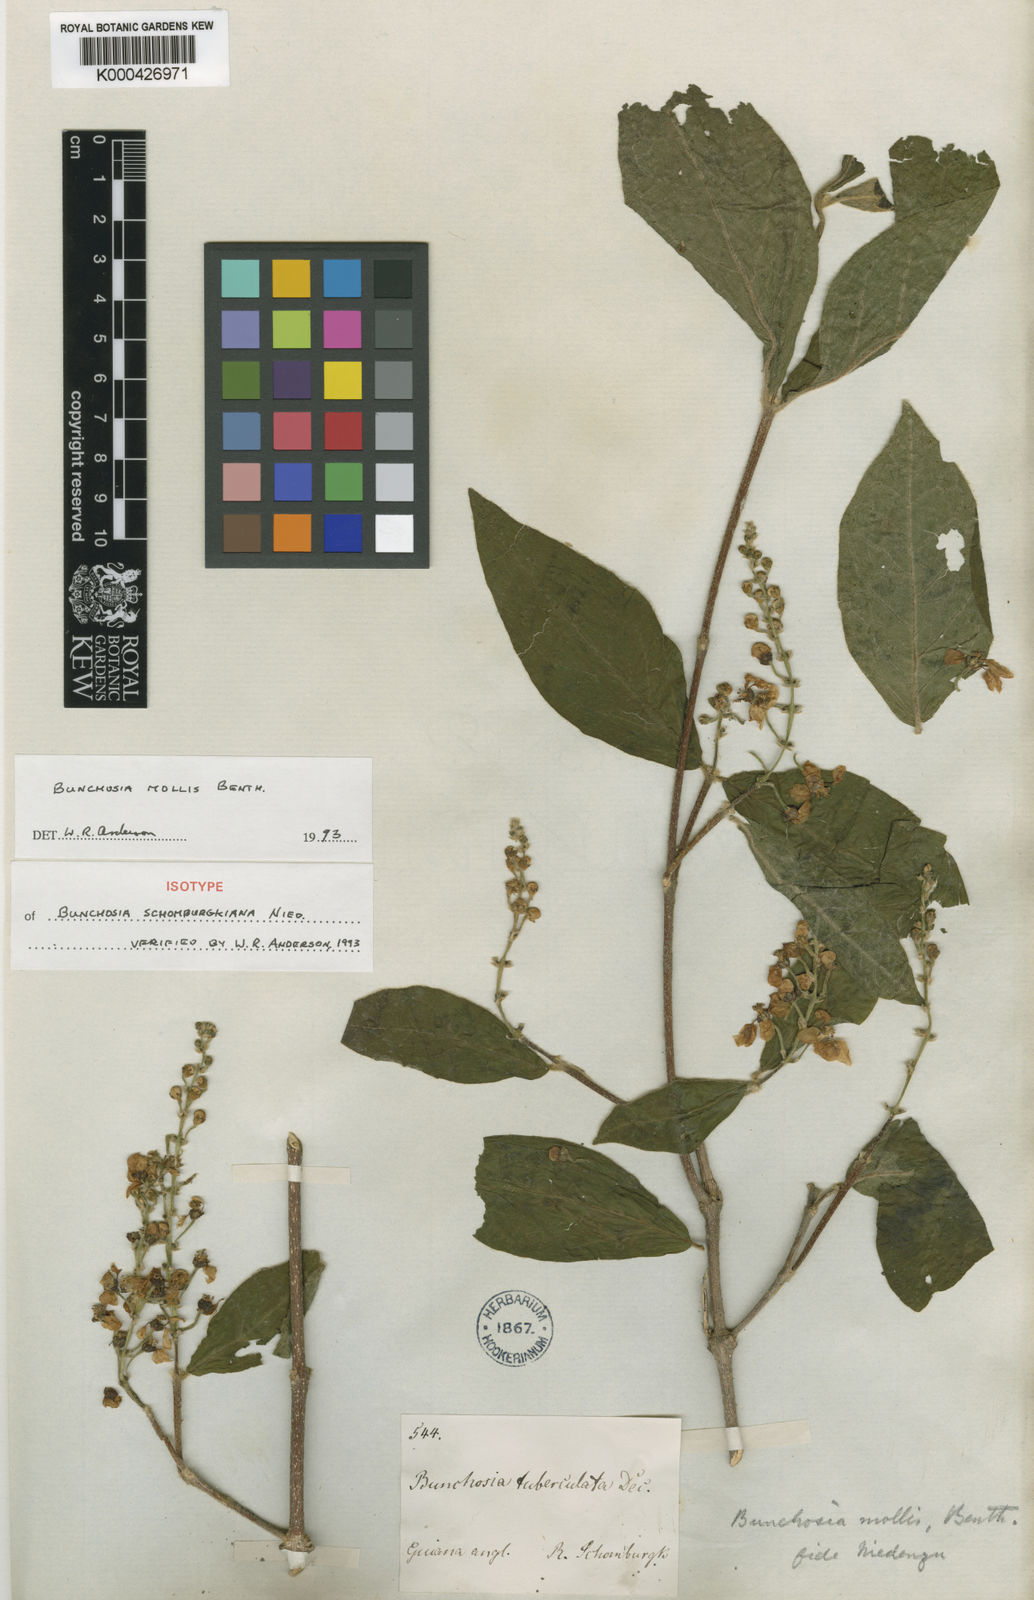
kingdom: Plantae
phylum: Tracheophyta
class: Magnoliopsida
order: Malpighiales
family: Malpighiaceae
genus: Bunchosia
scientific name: Bunchosia mollis
